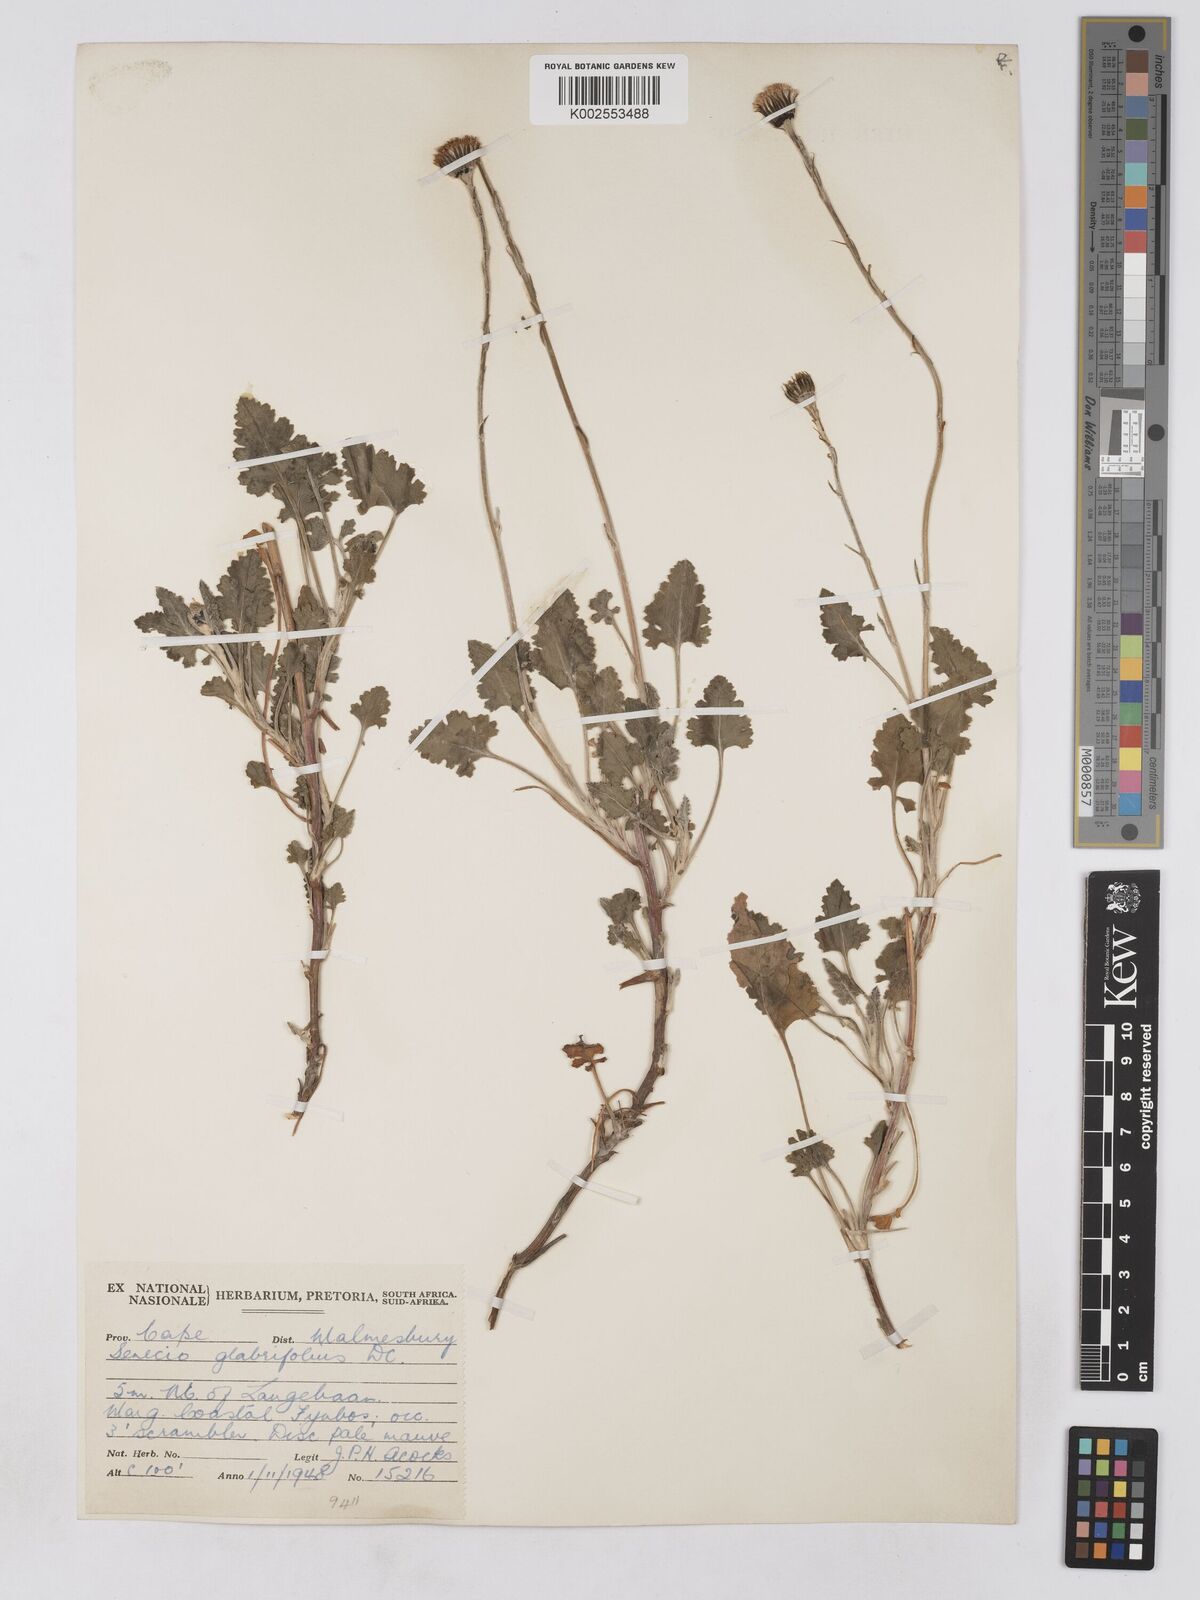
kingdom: Plantae
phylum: Tracheophyta
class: Magnoliopsida
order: Asterales
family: Asteraceae
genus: Bolandia
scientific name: Bolandia glabrifolia
